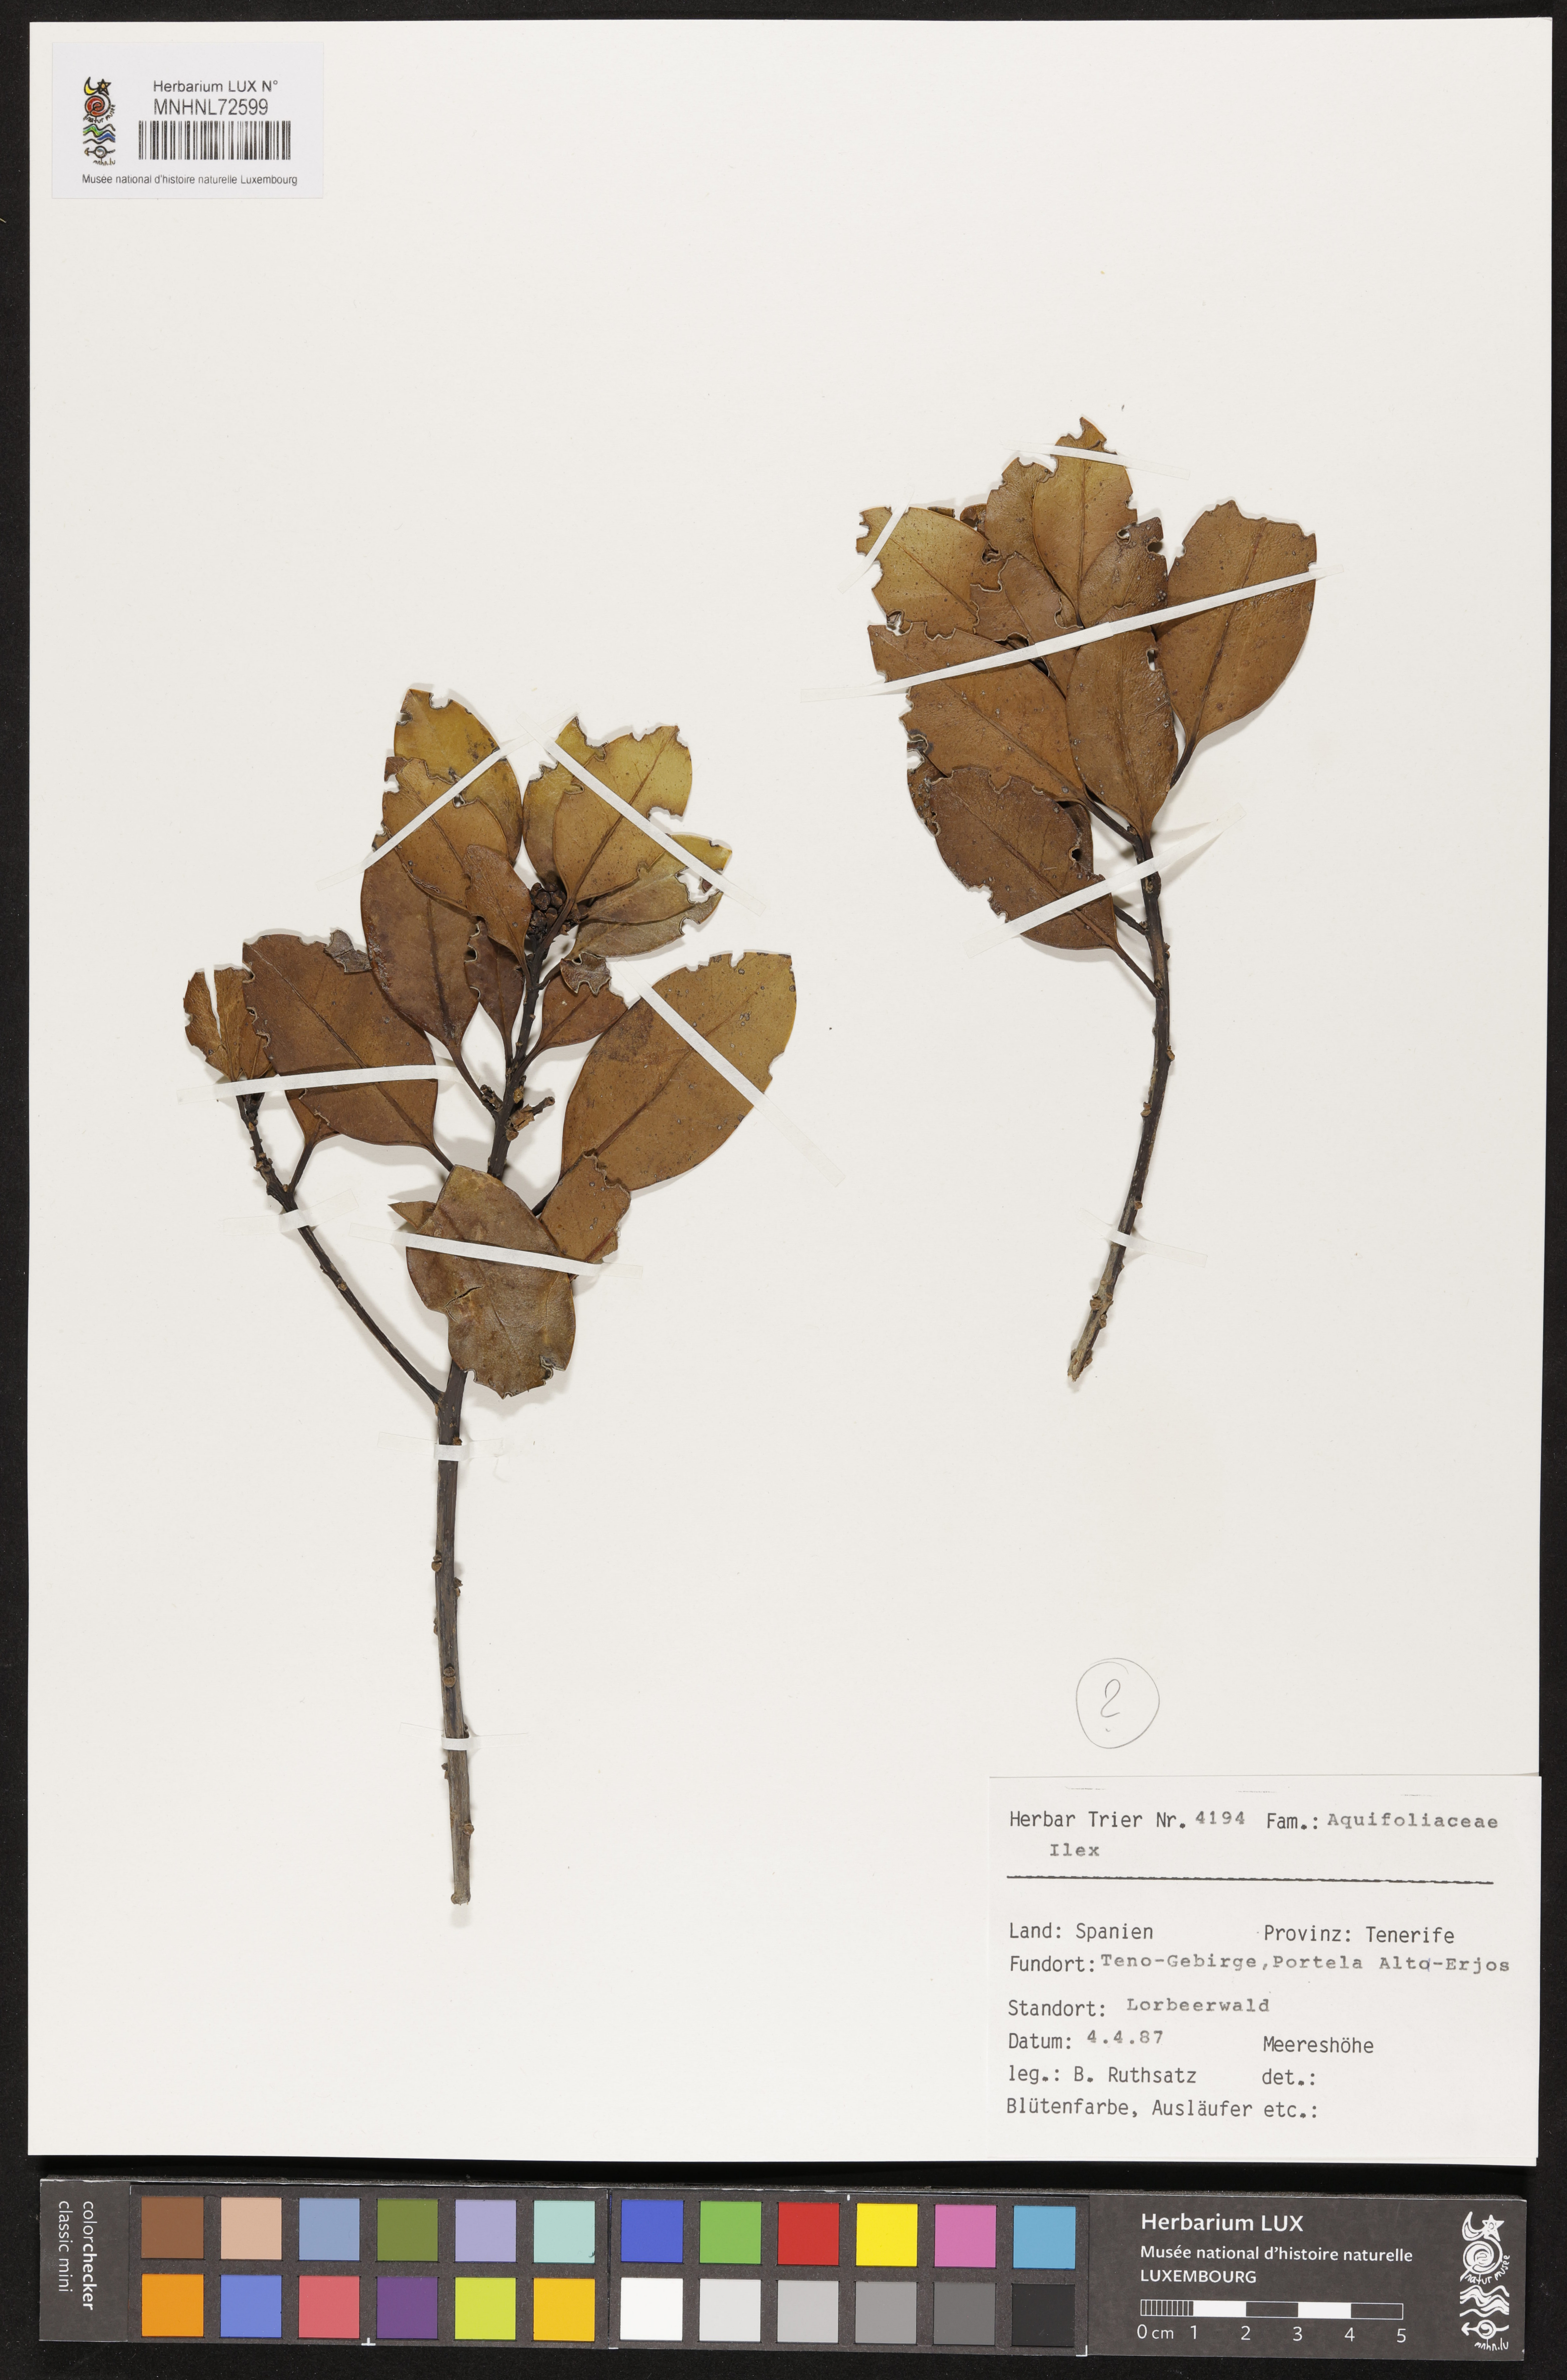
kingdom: Plantae
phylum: Tracheophyta
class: Magnoliopsida
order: Aquifoliales
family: Aquifoliaceae
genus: Ilex
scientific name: Ilex
